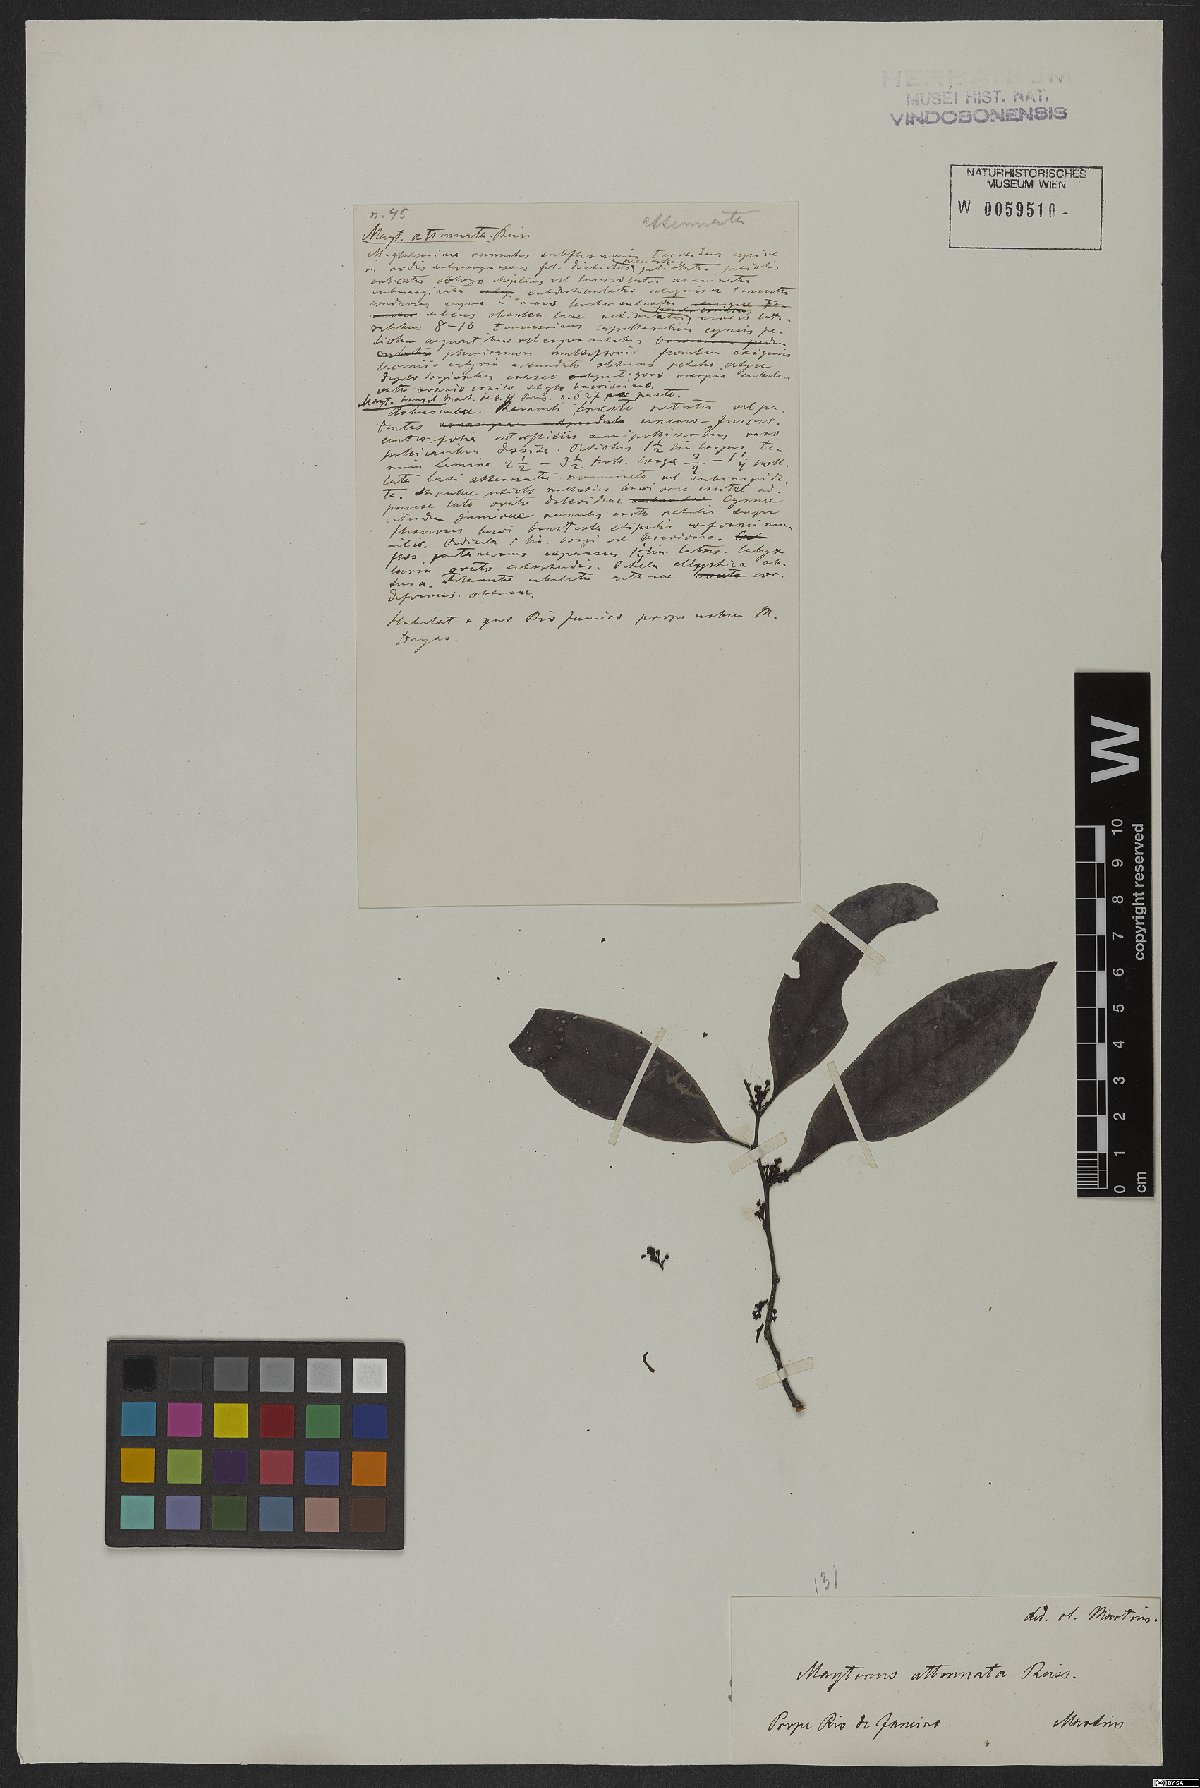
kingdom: Plantae
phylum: Tracheophyta
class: Magnoliopsida
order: Celastrales
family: Celastraceae
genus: Monteverdia
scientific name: Monteverdia communis
